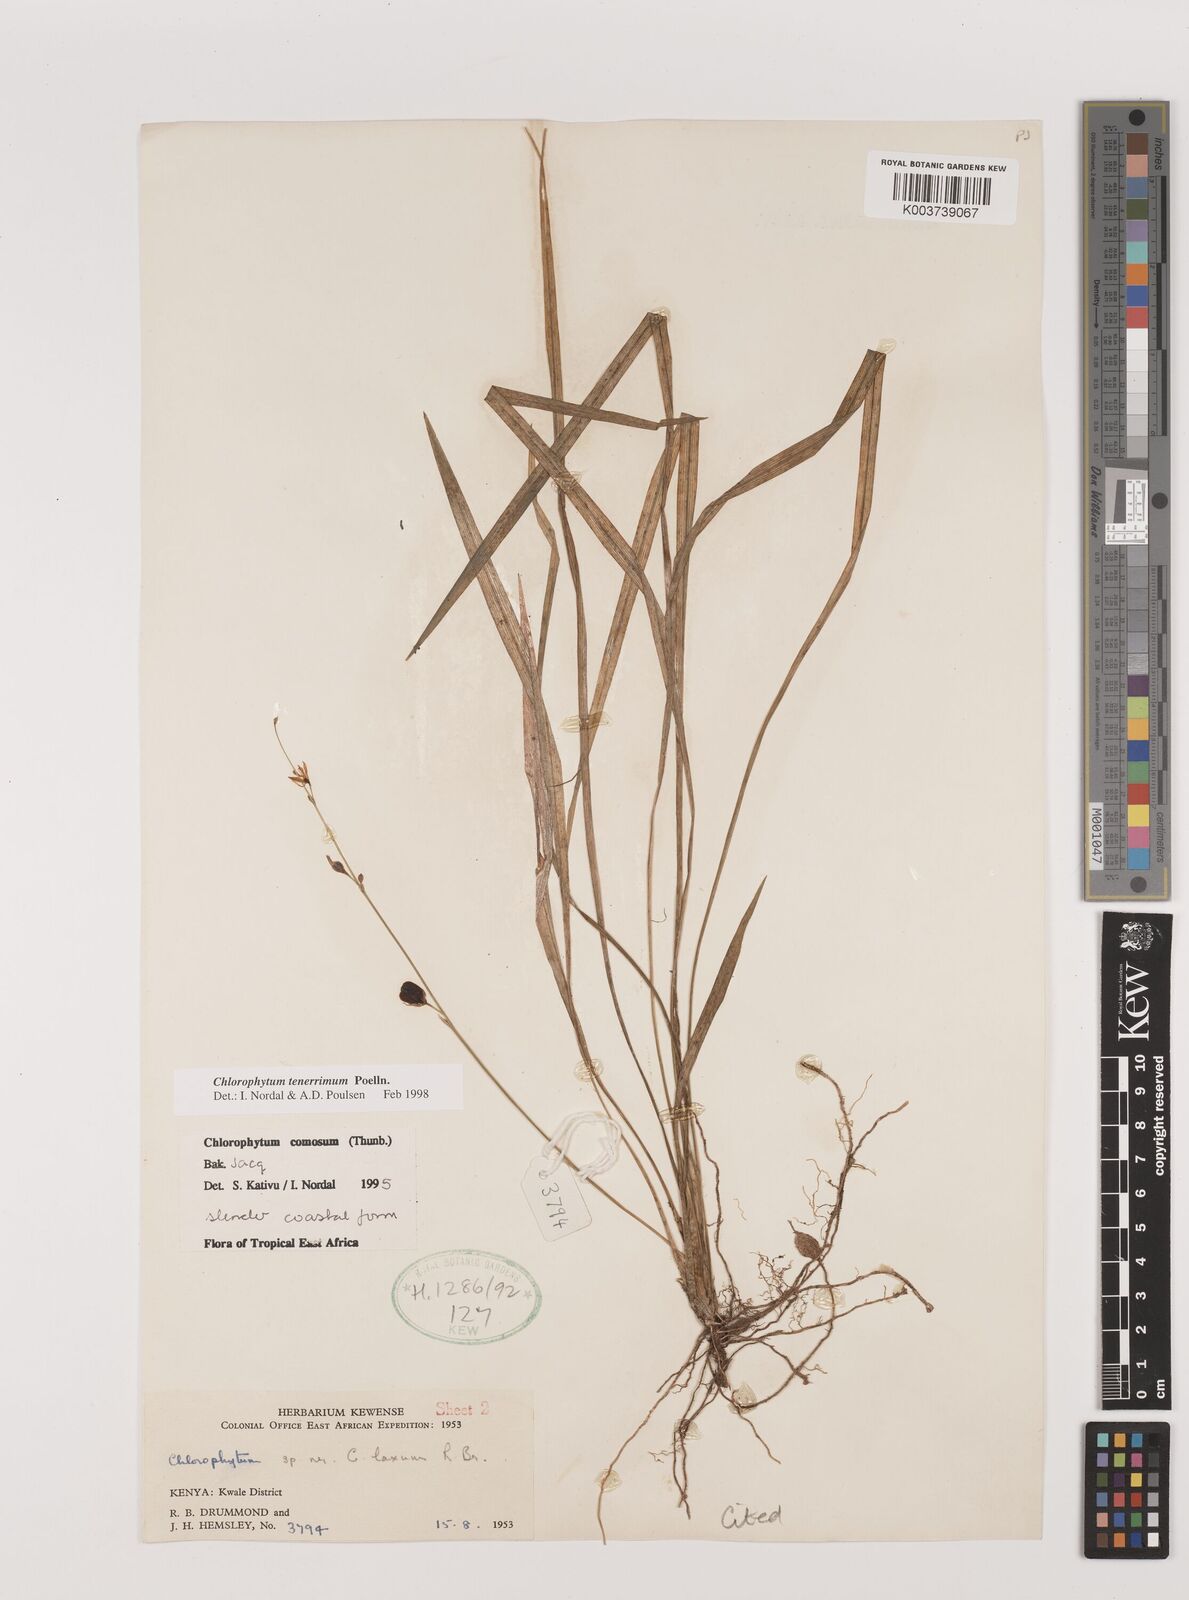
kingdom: Plantae
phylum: Tracheophyta
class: Liliopsida
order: Asparagales
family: Asparagaceae
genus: Chlorophytum
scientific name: Chlorophytum tenerrimum
